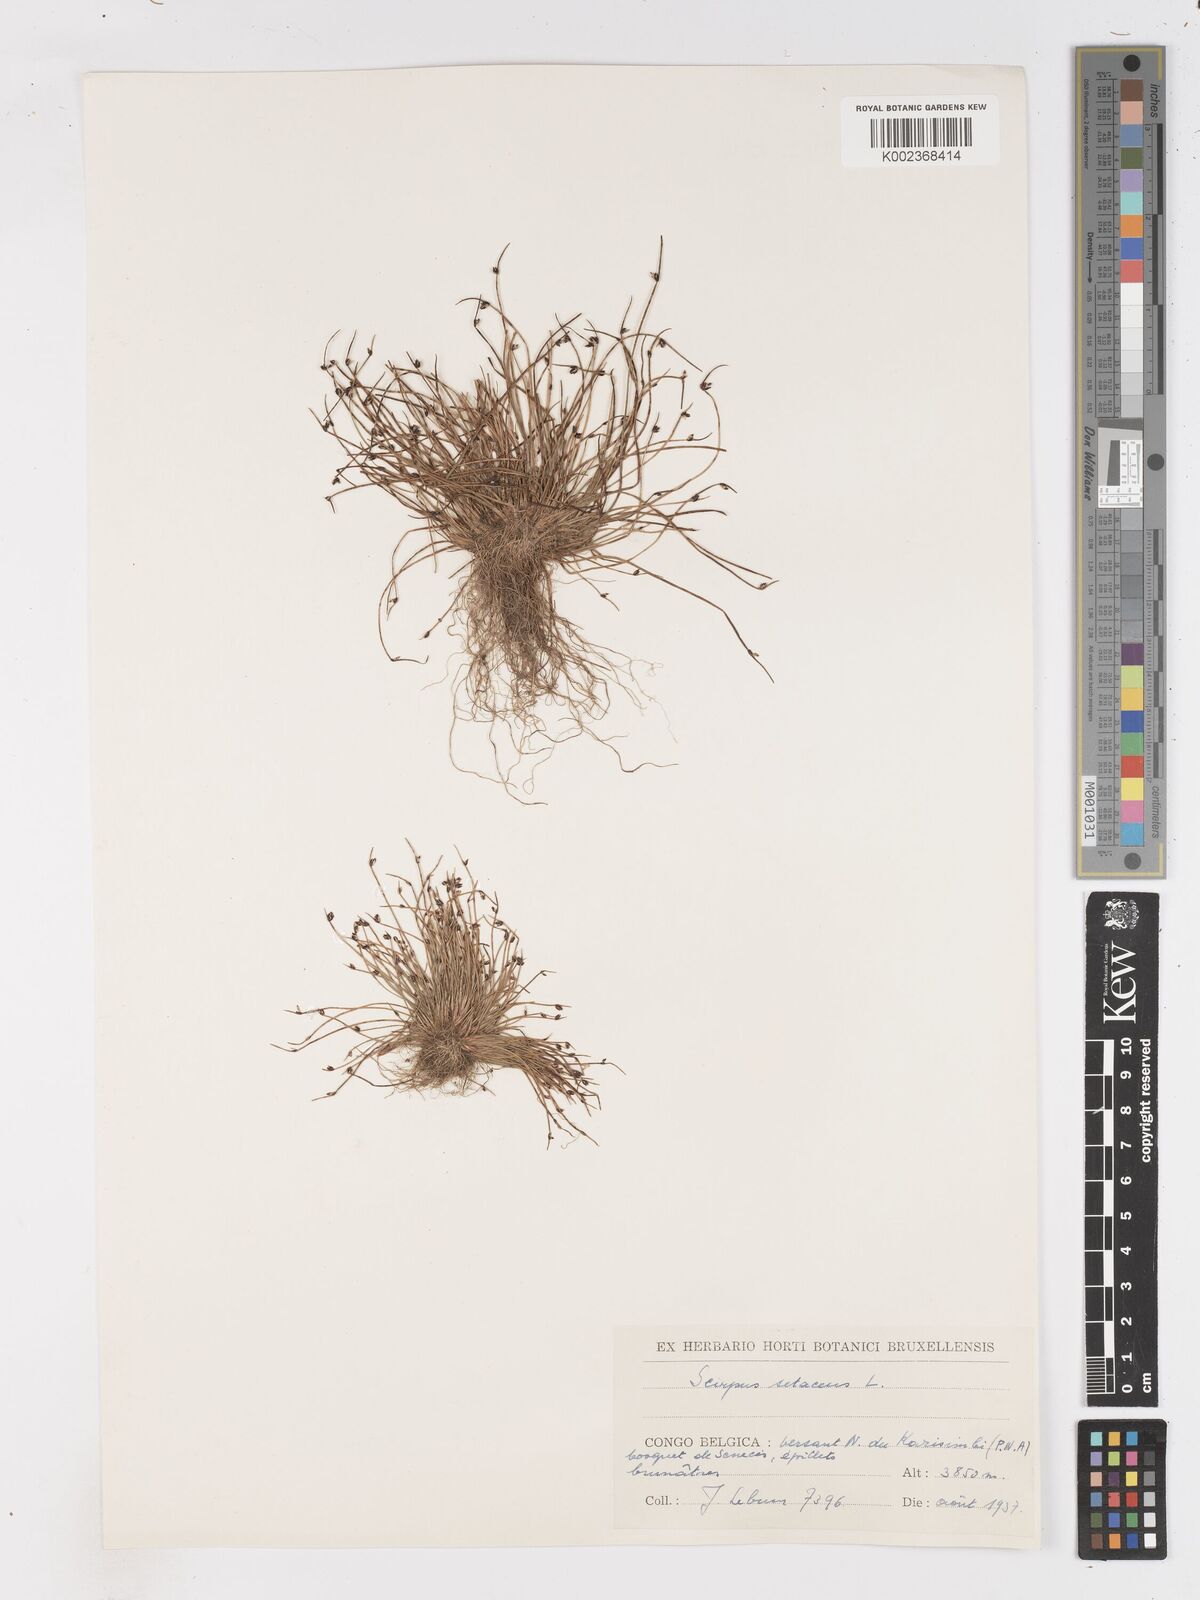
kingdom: Plantae
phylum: Tracheophyta
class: Liliopsida
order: Poales
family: Cyperaceae
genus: Isolepis
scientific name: Isolepis setacea
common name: Bristle club-rush
